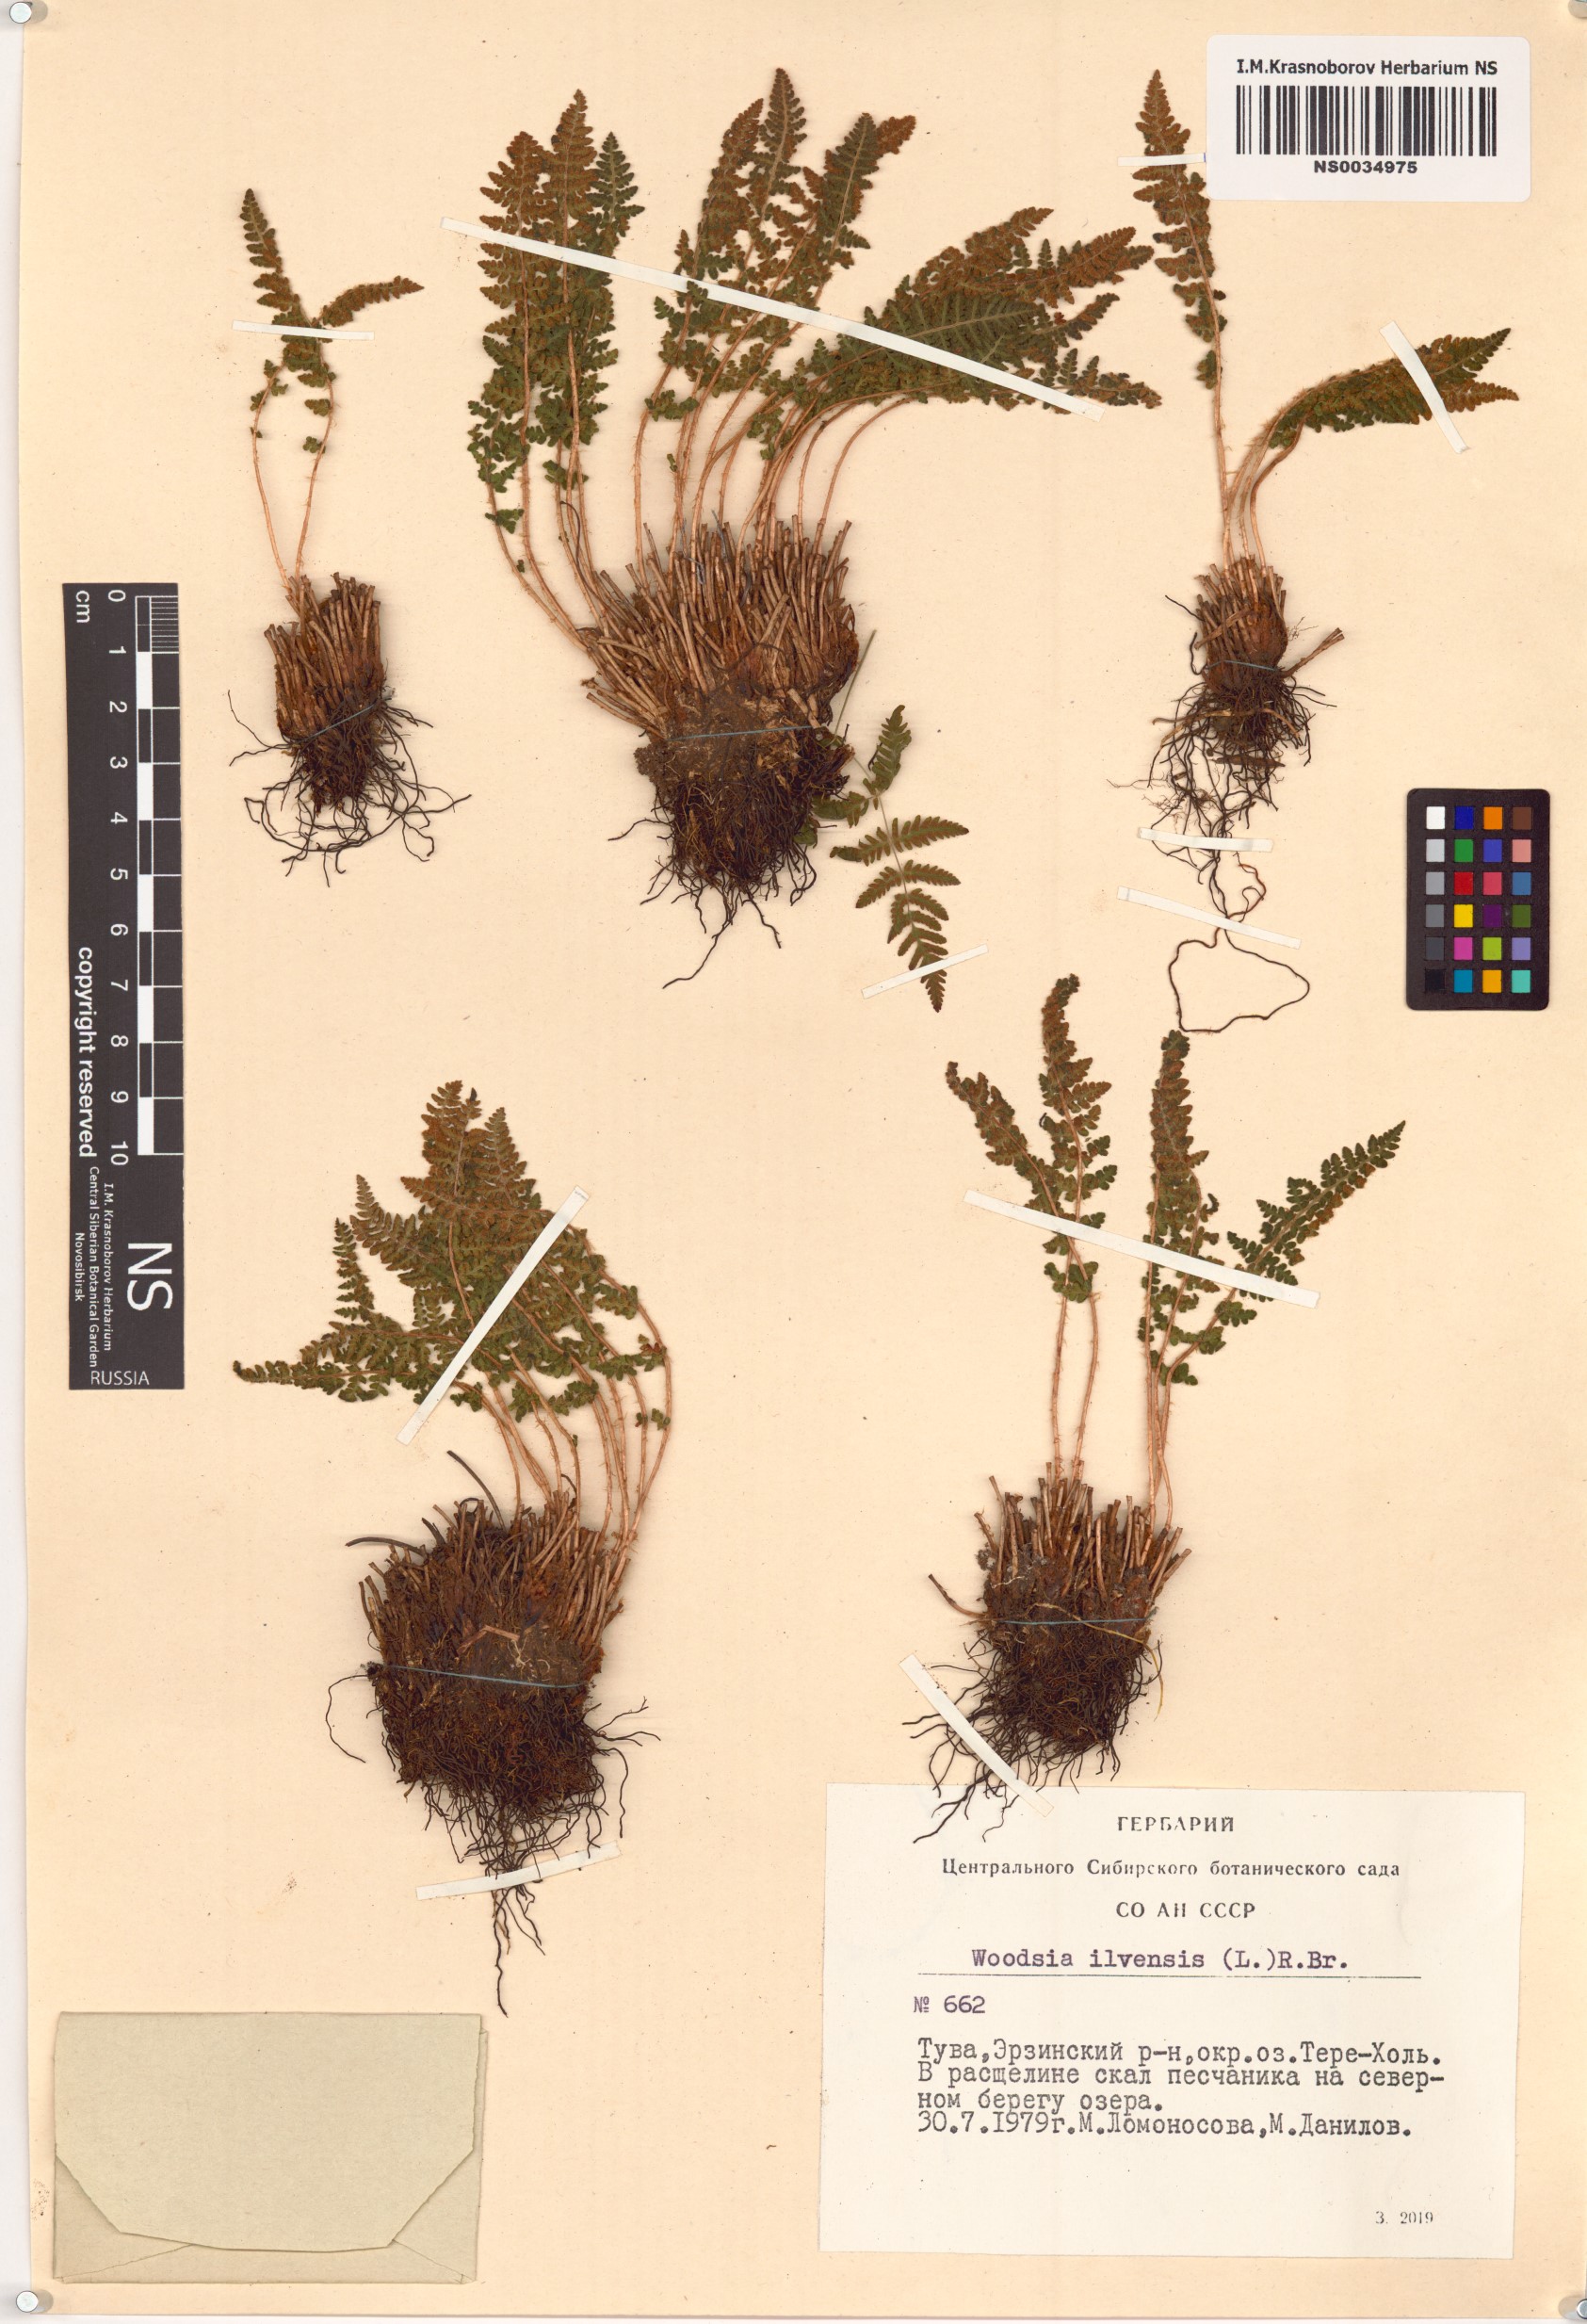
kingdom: Plantae
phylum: Tracheophyta
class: Polypodiopsida
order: Polypodiales
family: Woodsiaceae
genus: Woodsia
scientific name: Woodsia ilvensis
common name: Fragrant woodsia
